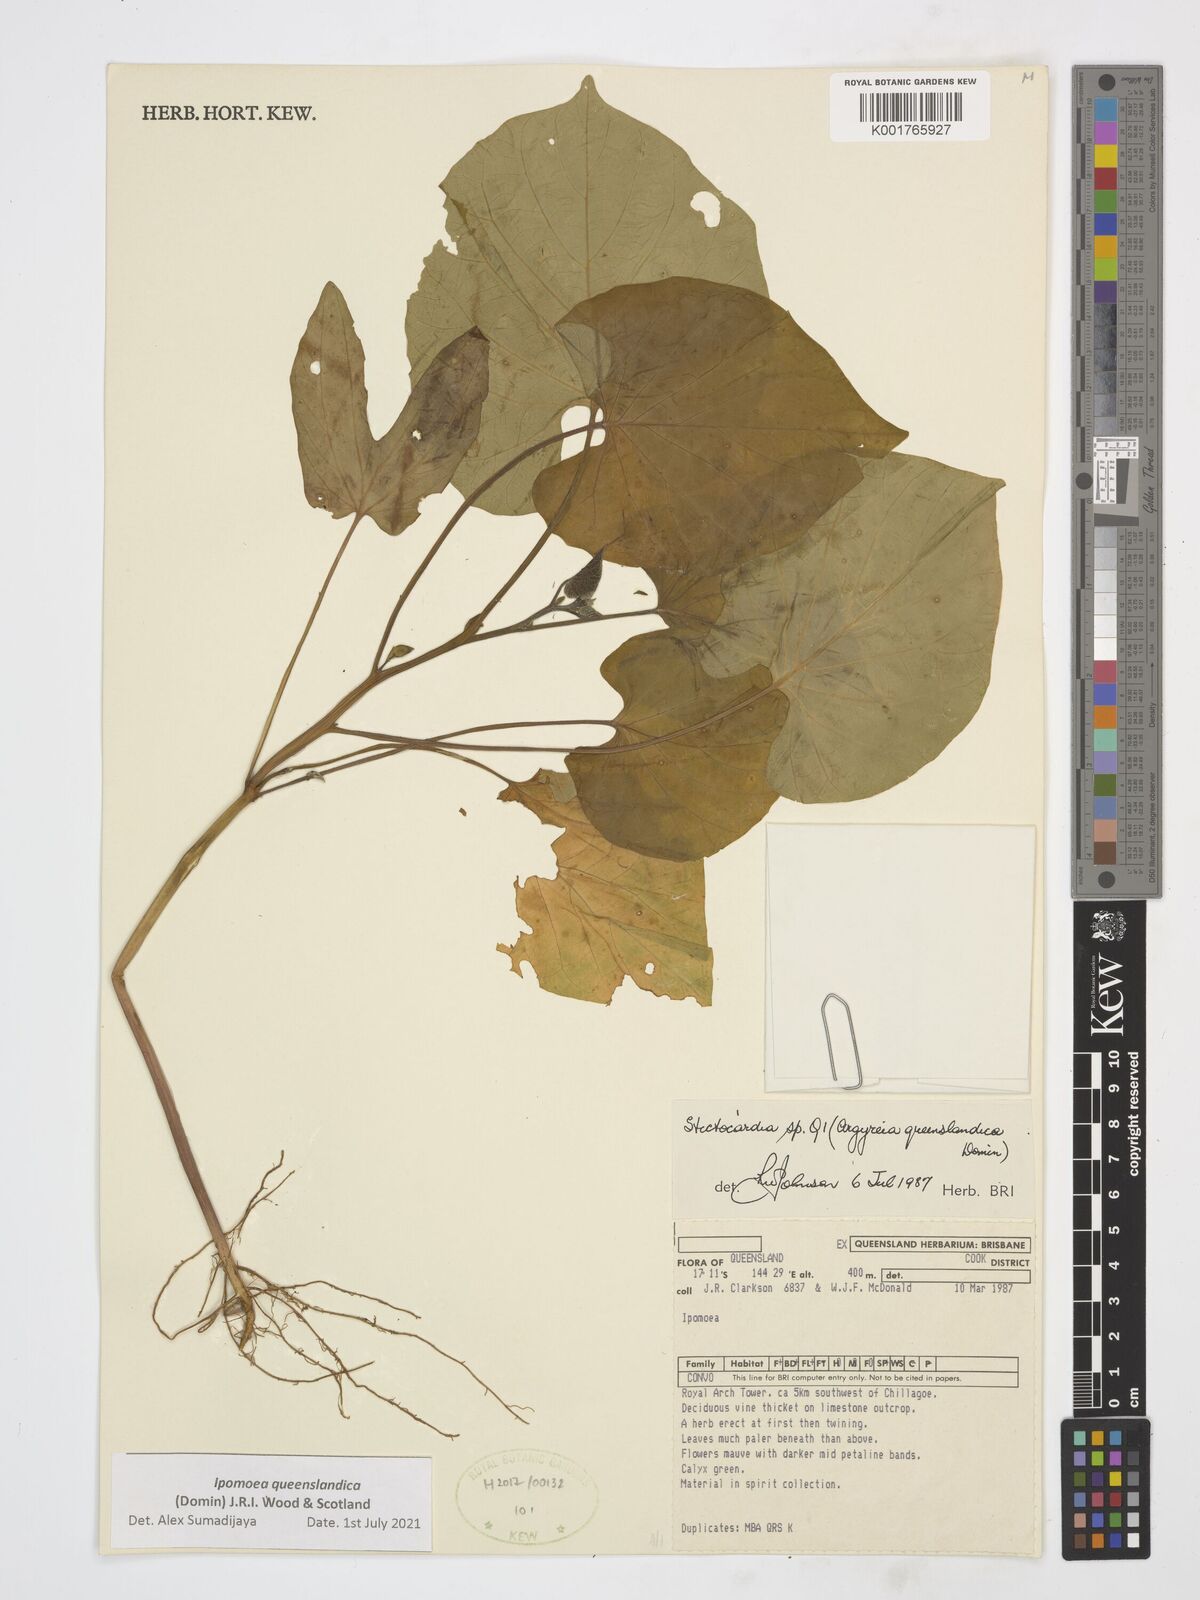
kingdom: Plantae
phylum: Tracheophyta
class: Magnoliopsida
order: Solanales
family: Convolvulaceae
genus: Stictocardia
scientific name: Stictocardia queenslandica
